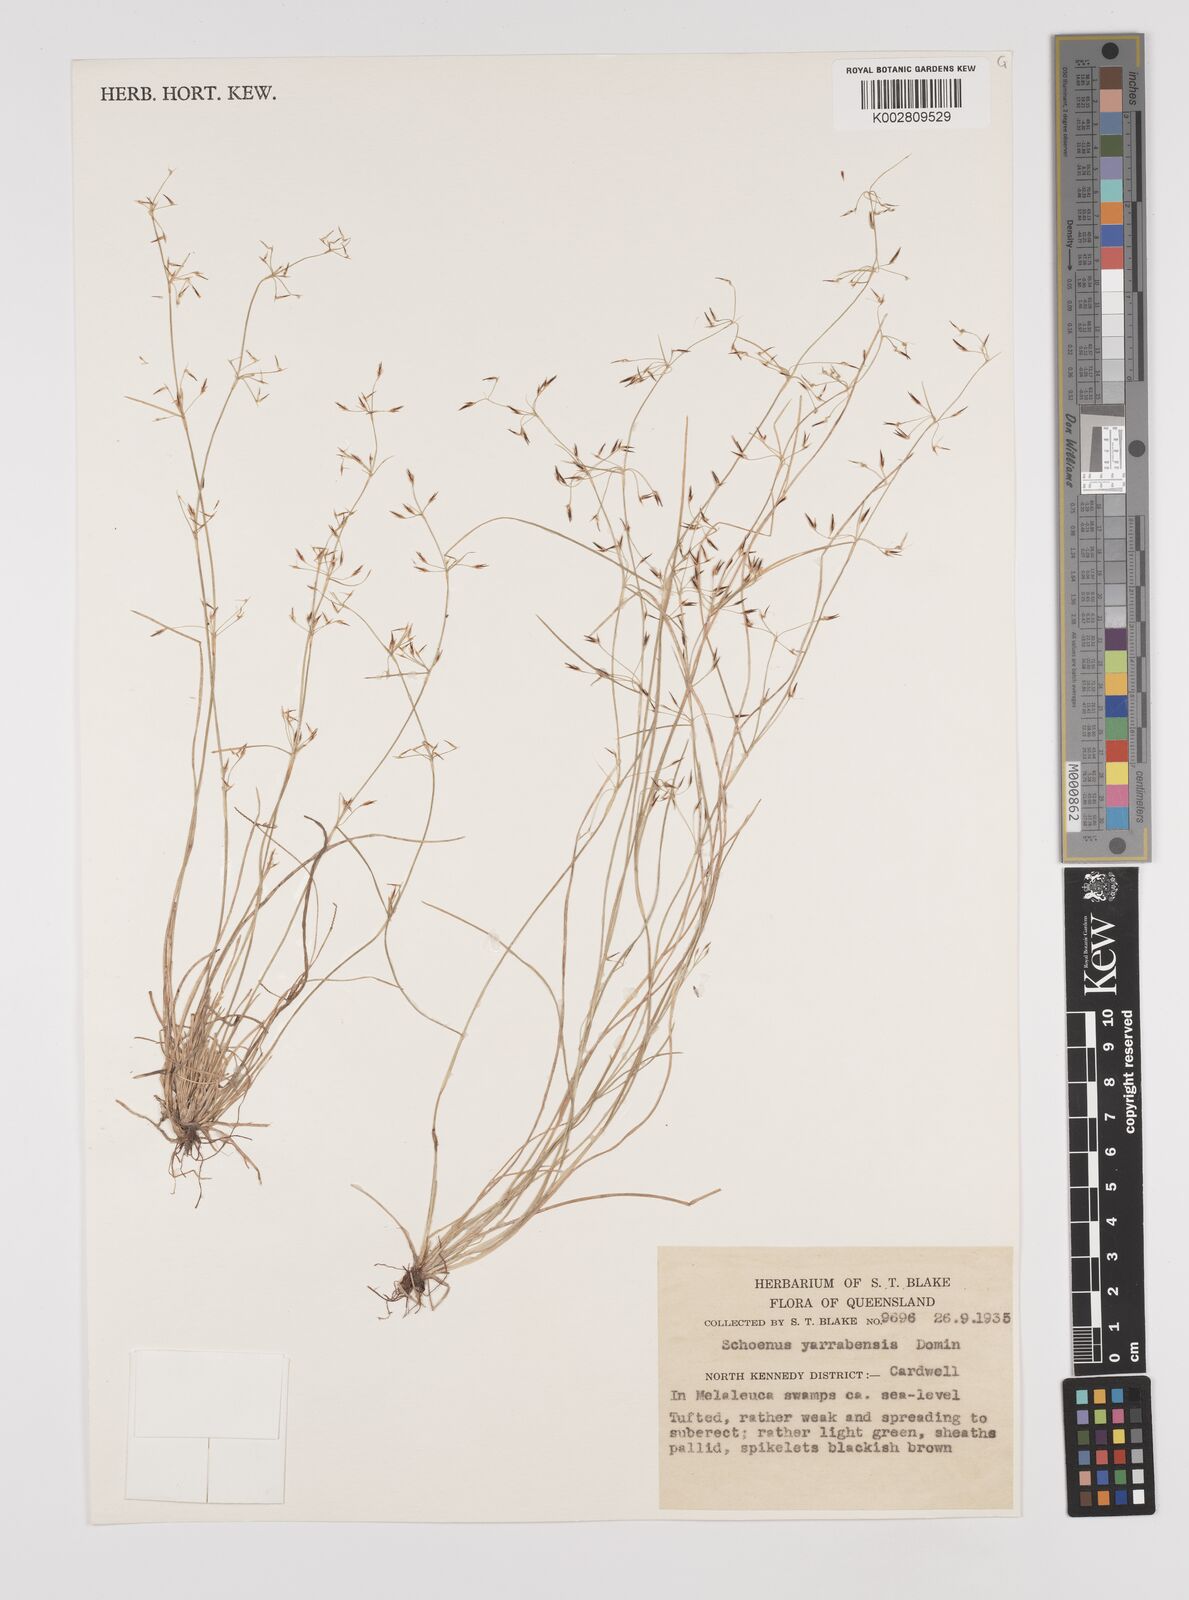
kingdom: Plantae
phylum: Tracheophyta
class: Liliopsida
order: Poales
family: Cyperaceae
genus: Schoenus
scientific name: Schoenus yarrabensis
